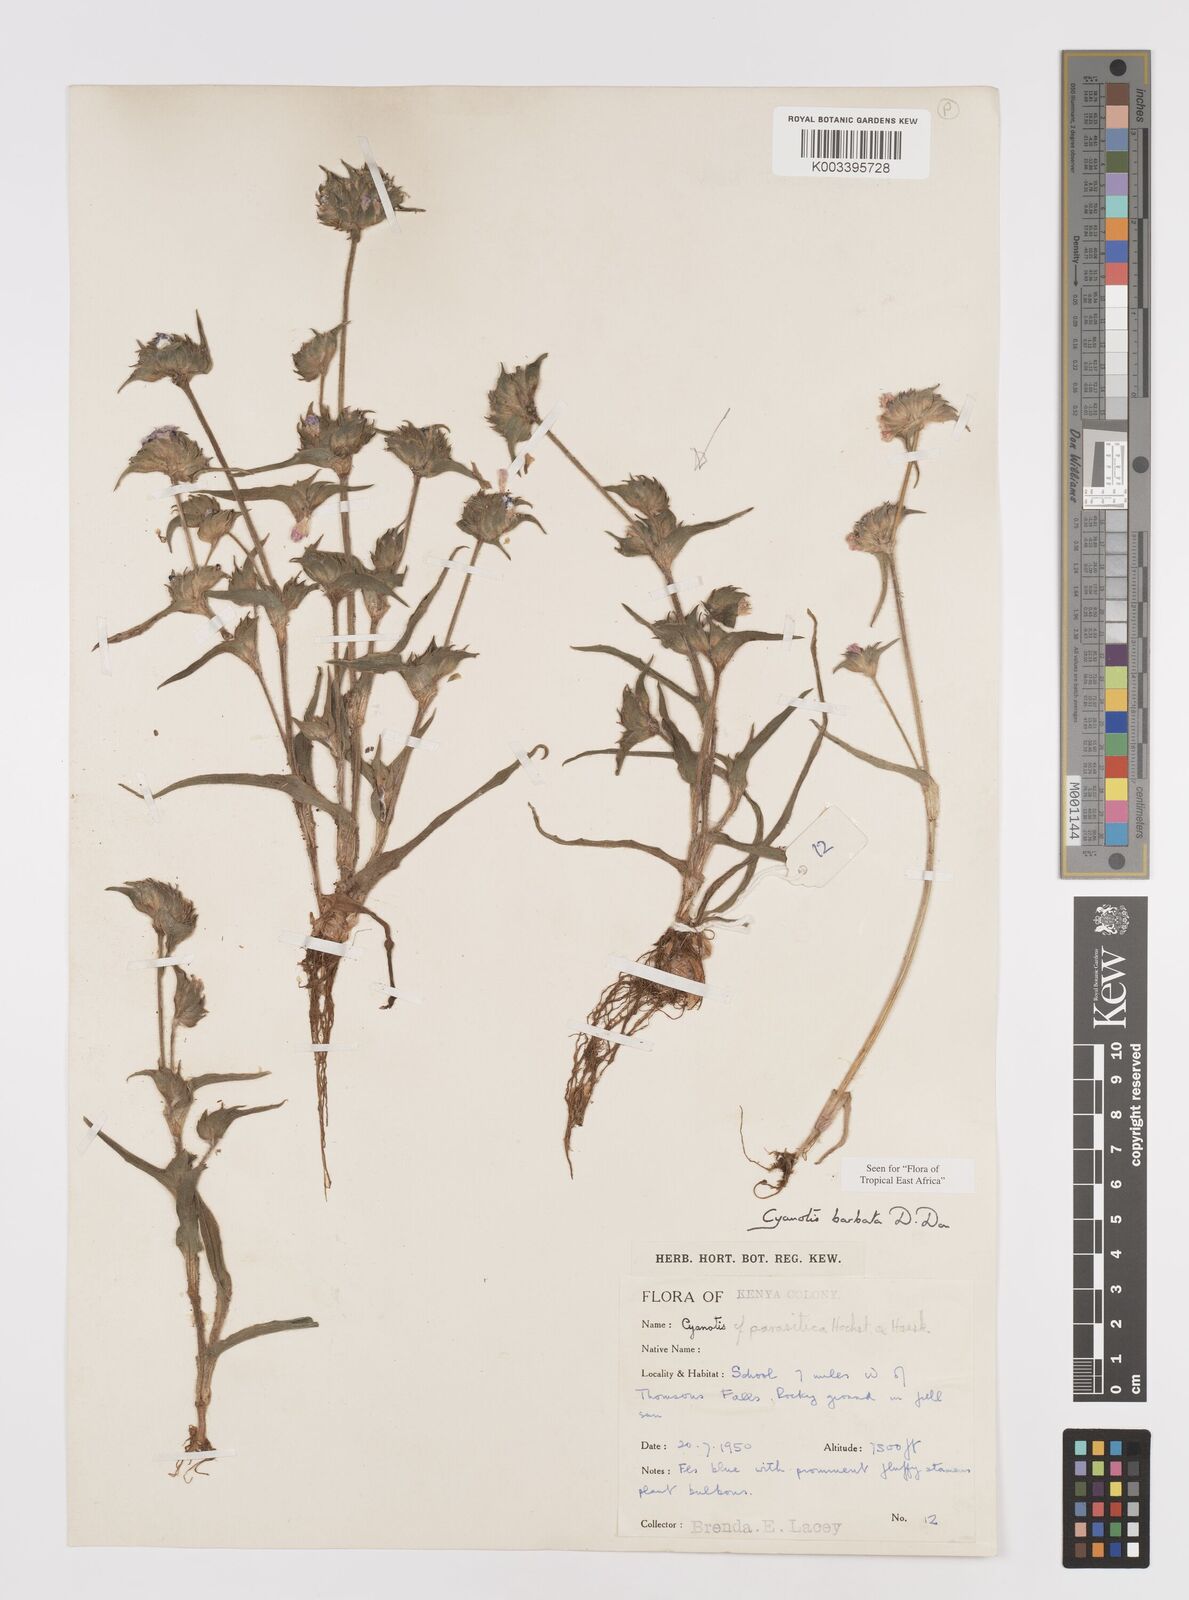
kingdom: Plantae
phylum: Tracheophyta
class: Liliopsida
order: Commelinales
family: Commelinaceae
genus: Cyanotis
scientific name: Cyanotis vaga
